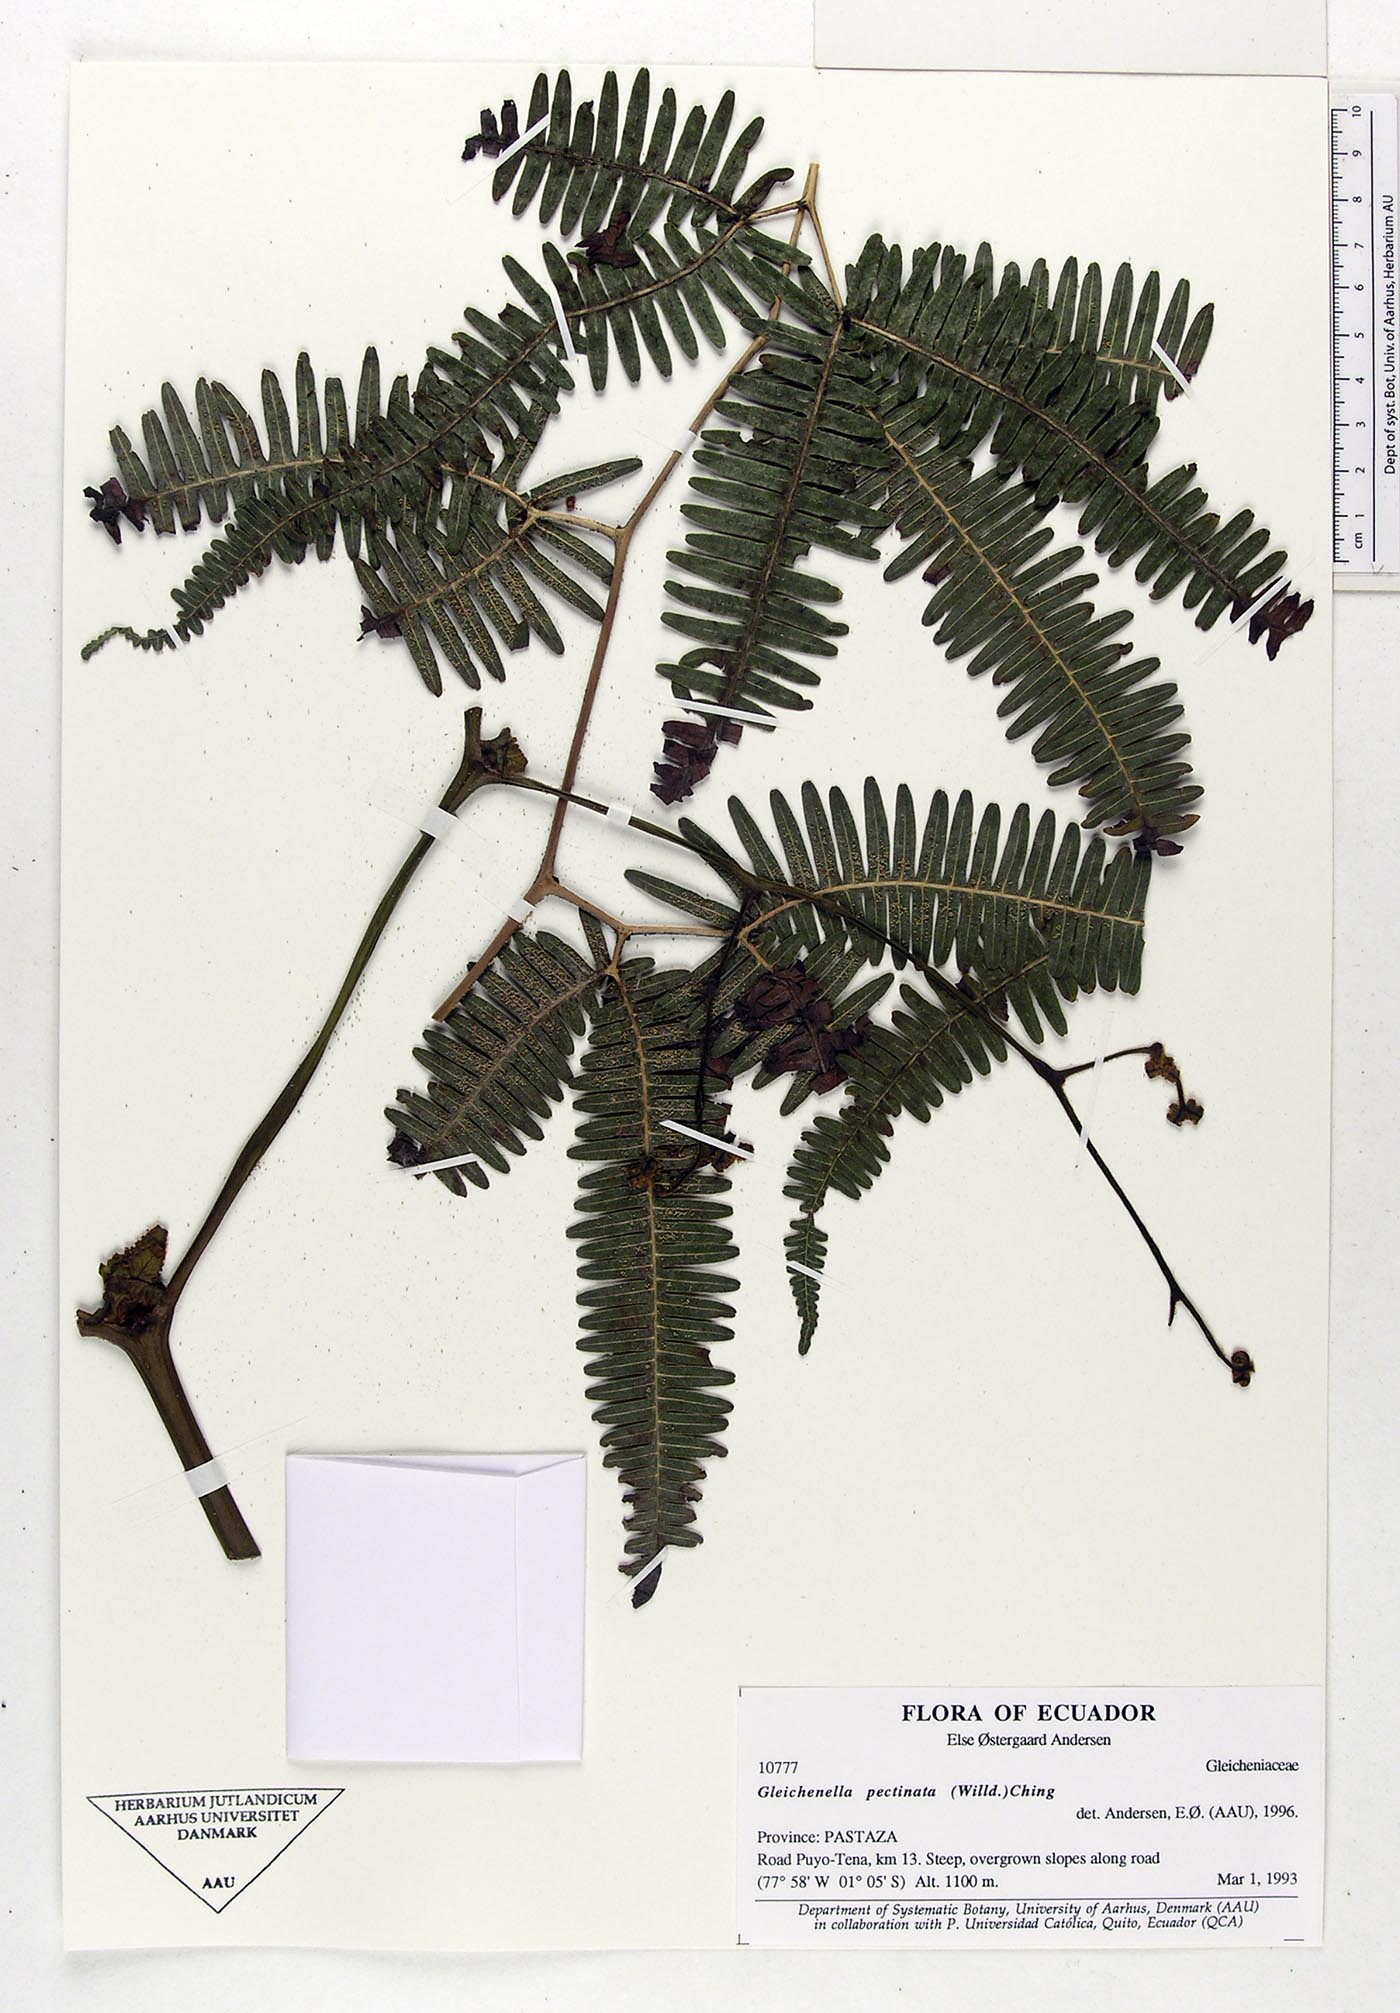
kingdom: Plantae
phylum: Tracheophyta
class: Polypodiopsida
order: Gleicheniales
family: Gleicheniaceae
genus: Gleichenella
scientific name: Gleichenella pectinata
